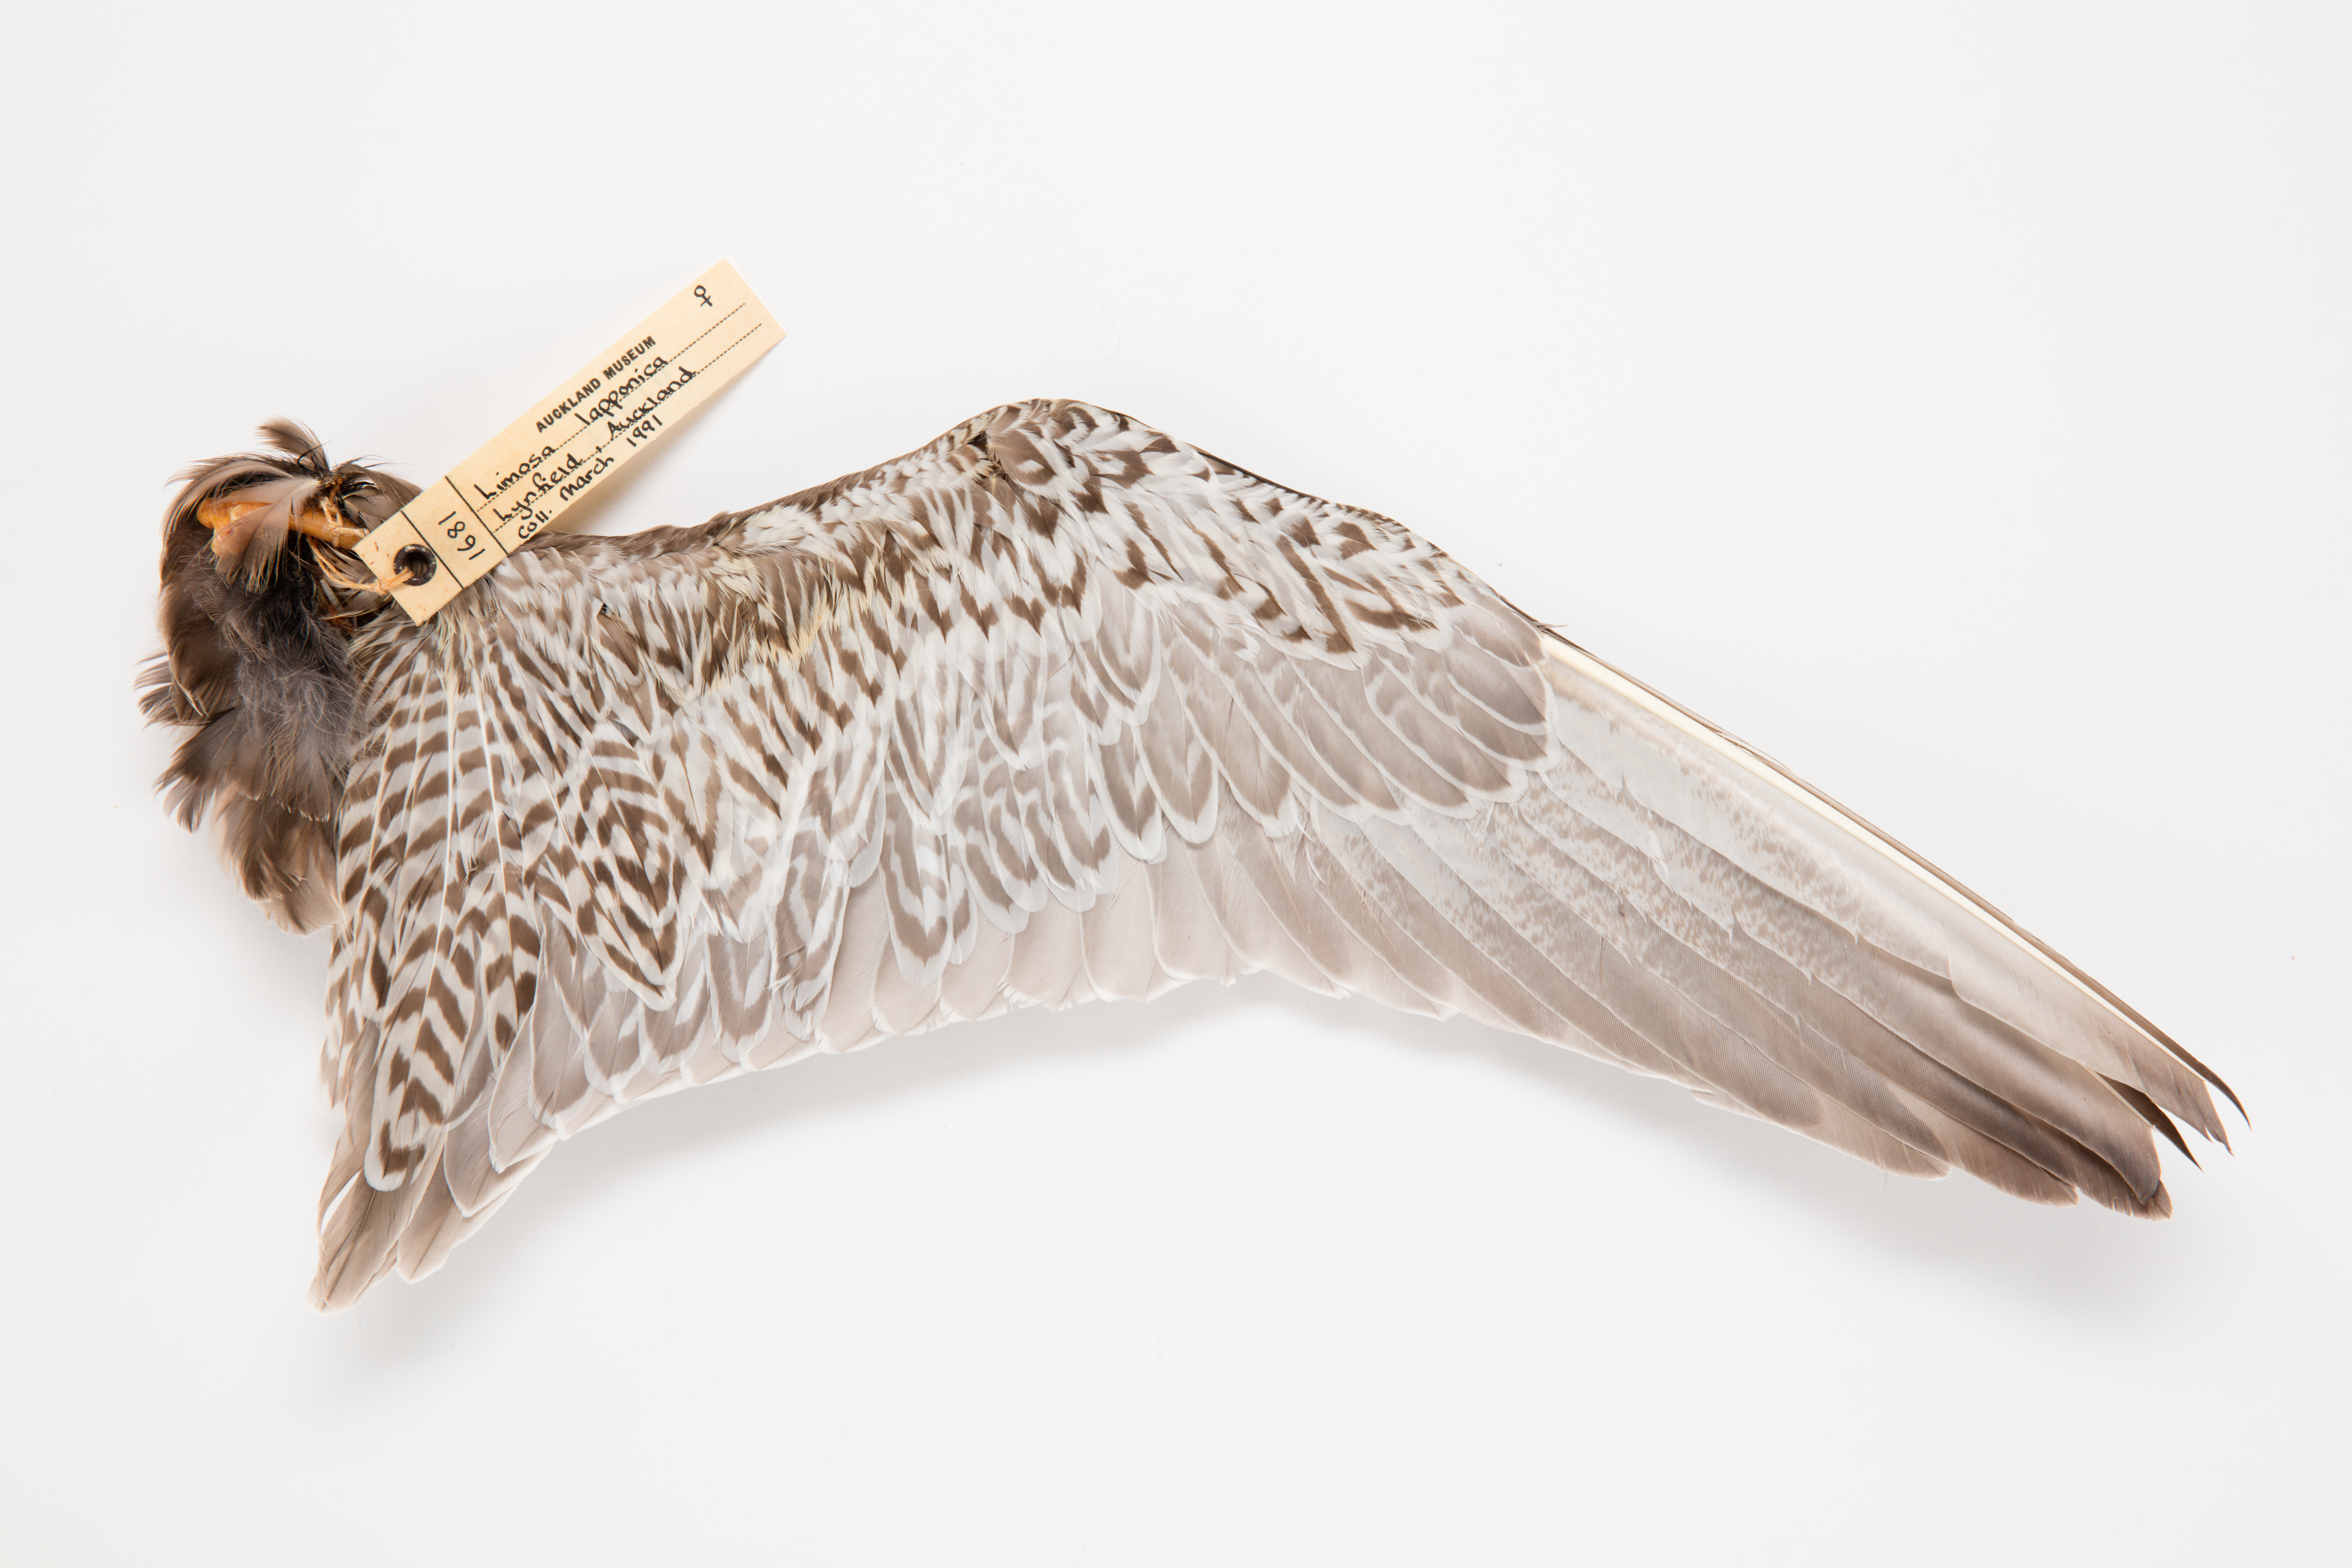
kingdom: Animalia
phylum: Chordata
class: Aves
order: Charadriiformes
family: Scolopacidae
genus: Limosa
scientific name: Limosa lapponica
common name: Bar-tailed godwit
